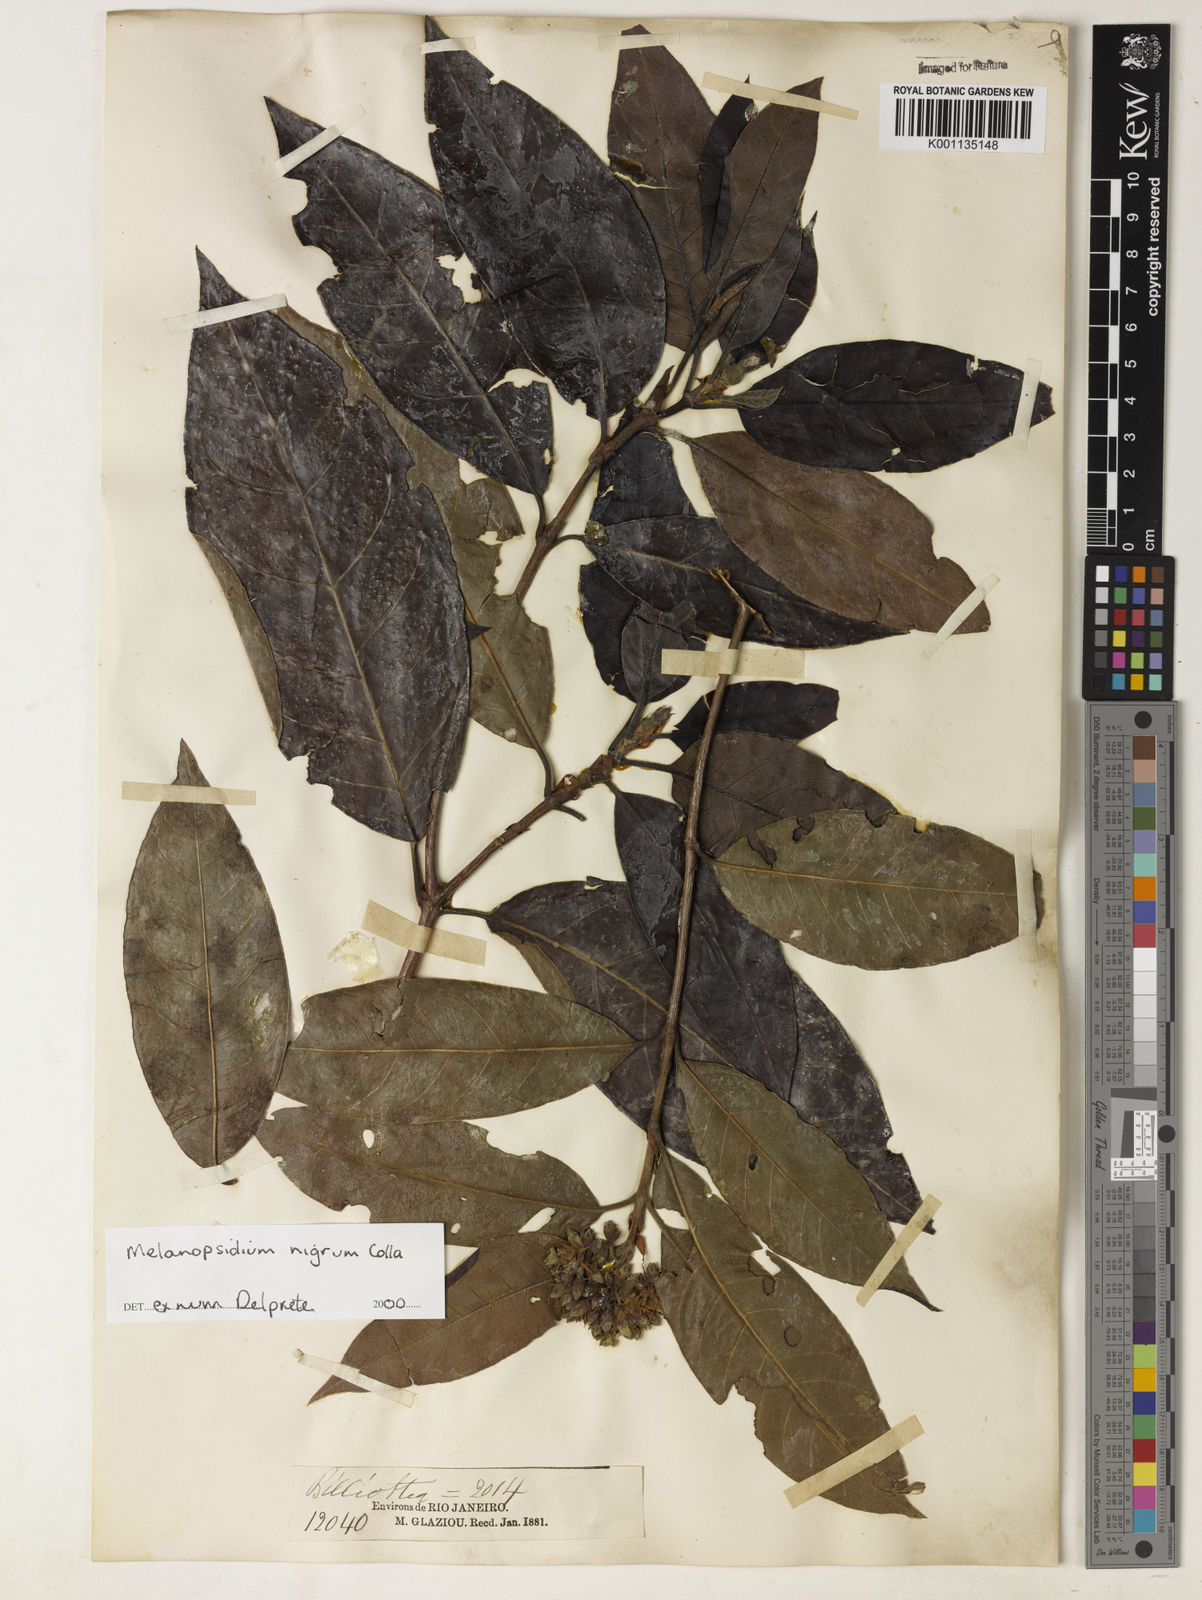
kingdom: Plantae
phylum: Tracheophyta
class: Magnoliopsida
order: Gentianales
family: Rubiaceae
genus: Melanopsidium
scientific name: Melanopsidium nigrum
